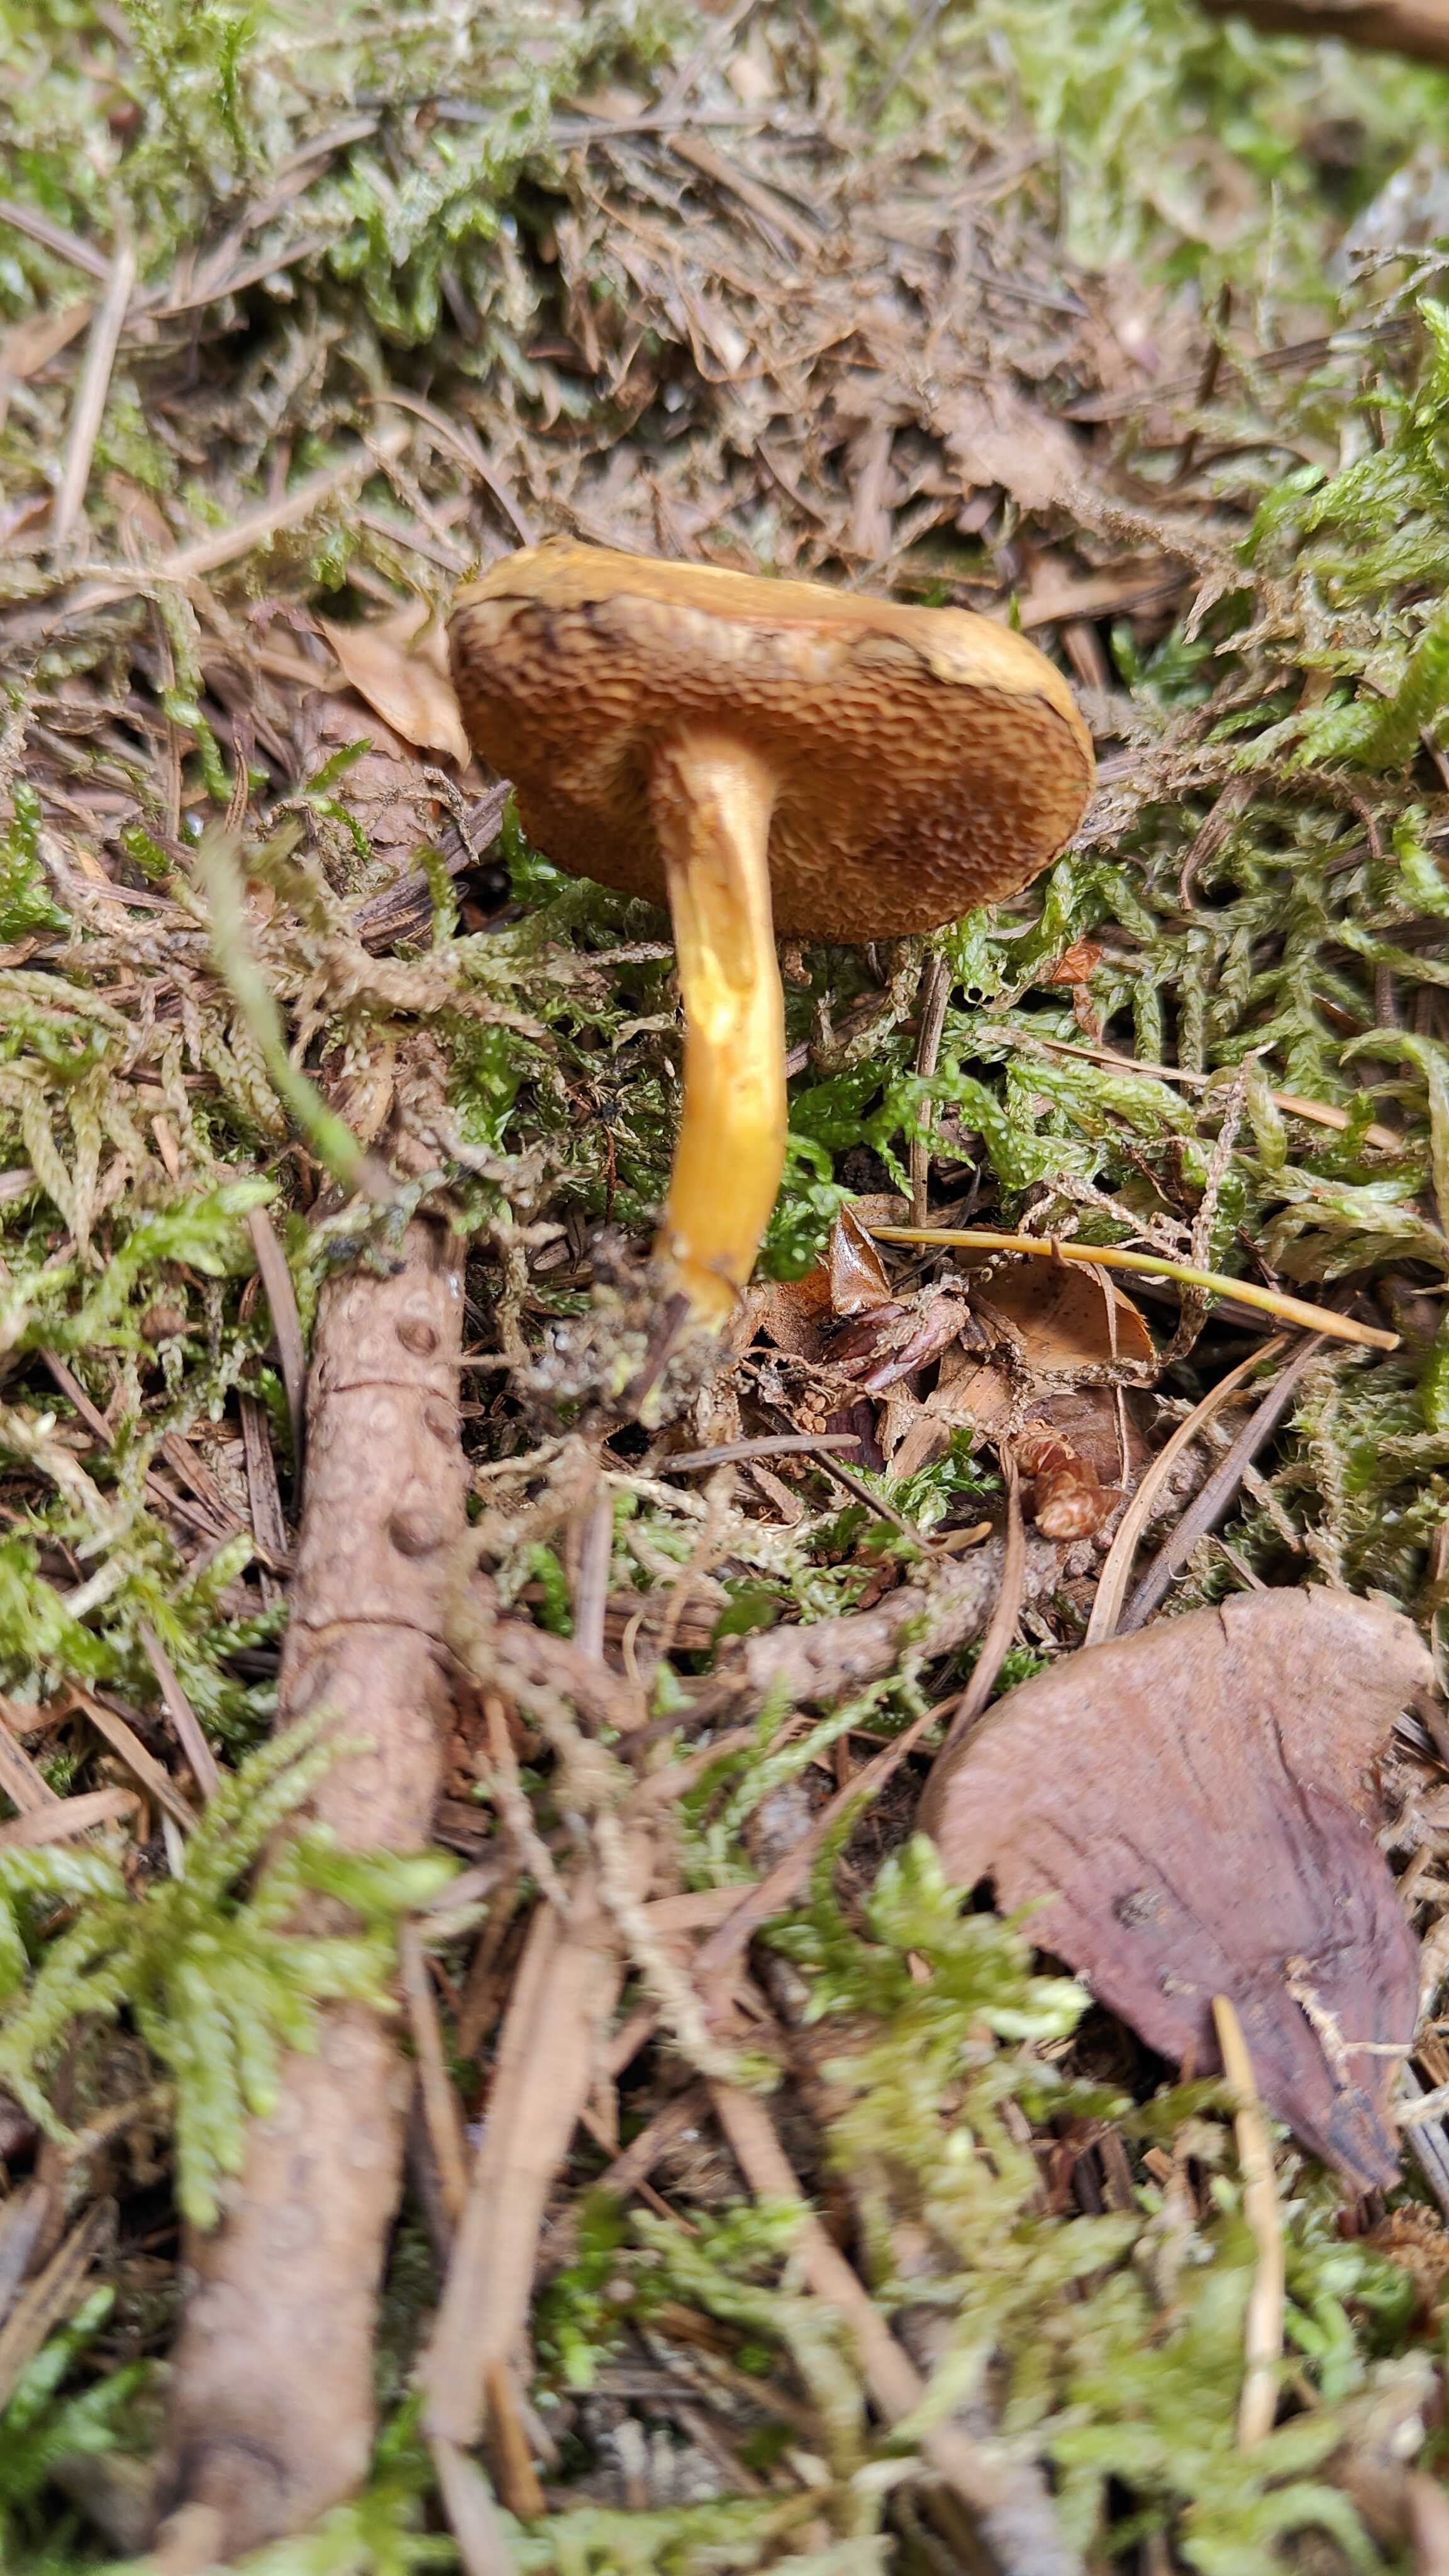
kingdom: Fungi
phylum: Basidiomycota
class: Agaricomycetes
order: Boletales
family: Boletaceae
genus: Chalciporus
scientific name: Chalciporus piperatus
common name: peberrørhat
